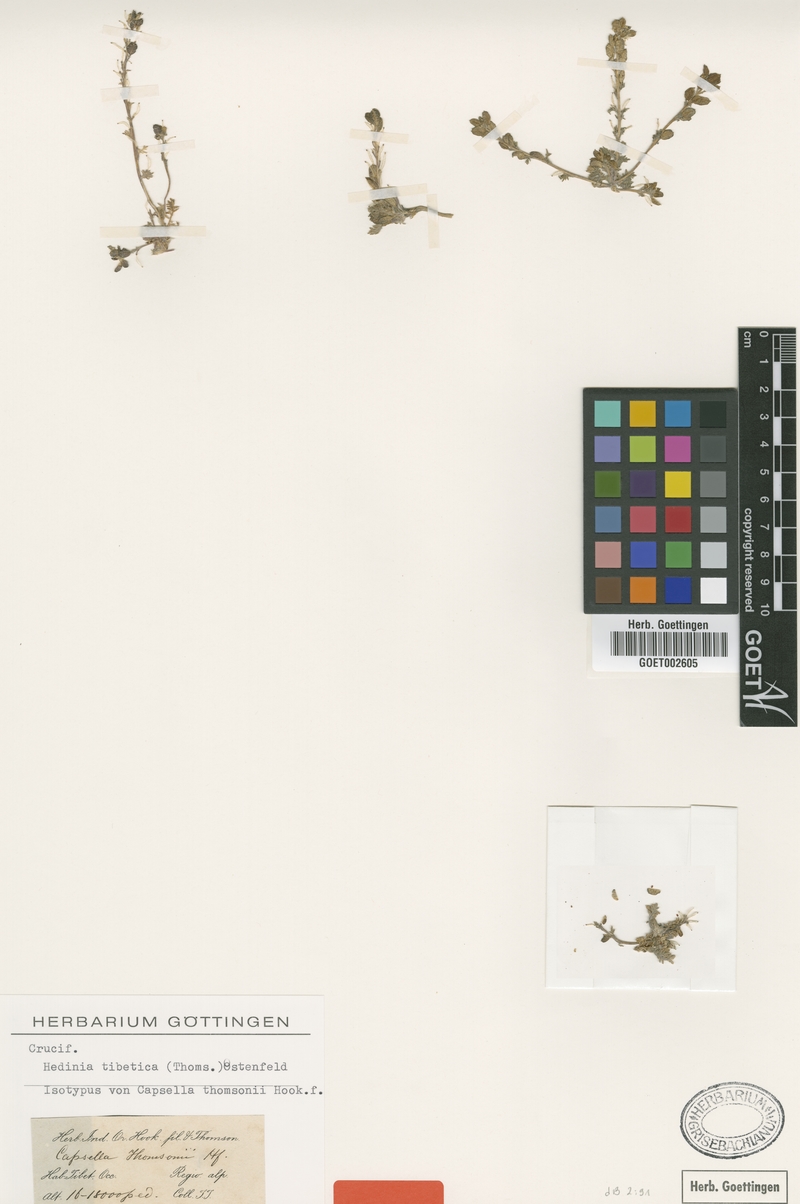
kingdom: Plantae
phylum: Tracheophyta
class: Magnoliopsida
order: Brassicales
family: Brassicaceae
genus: Smelowskia
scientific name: Smelowskia tibetica
